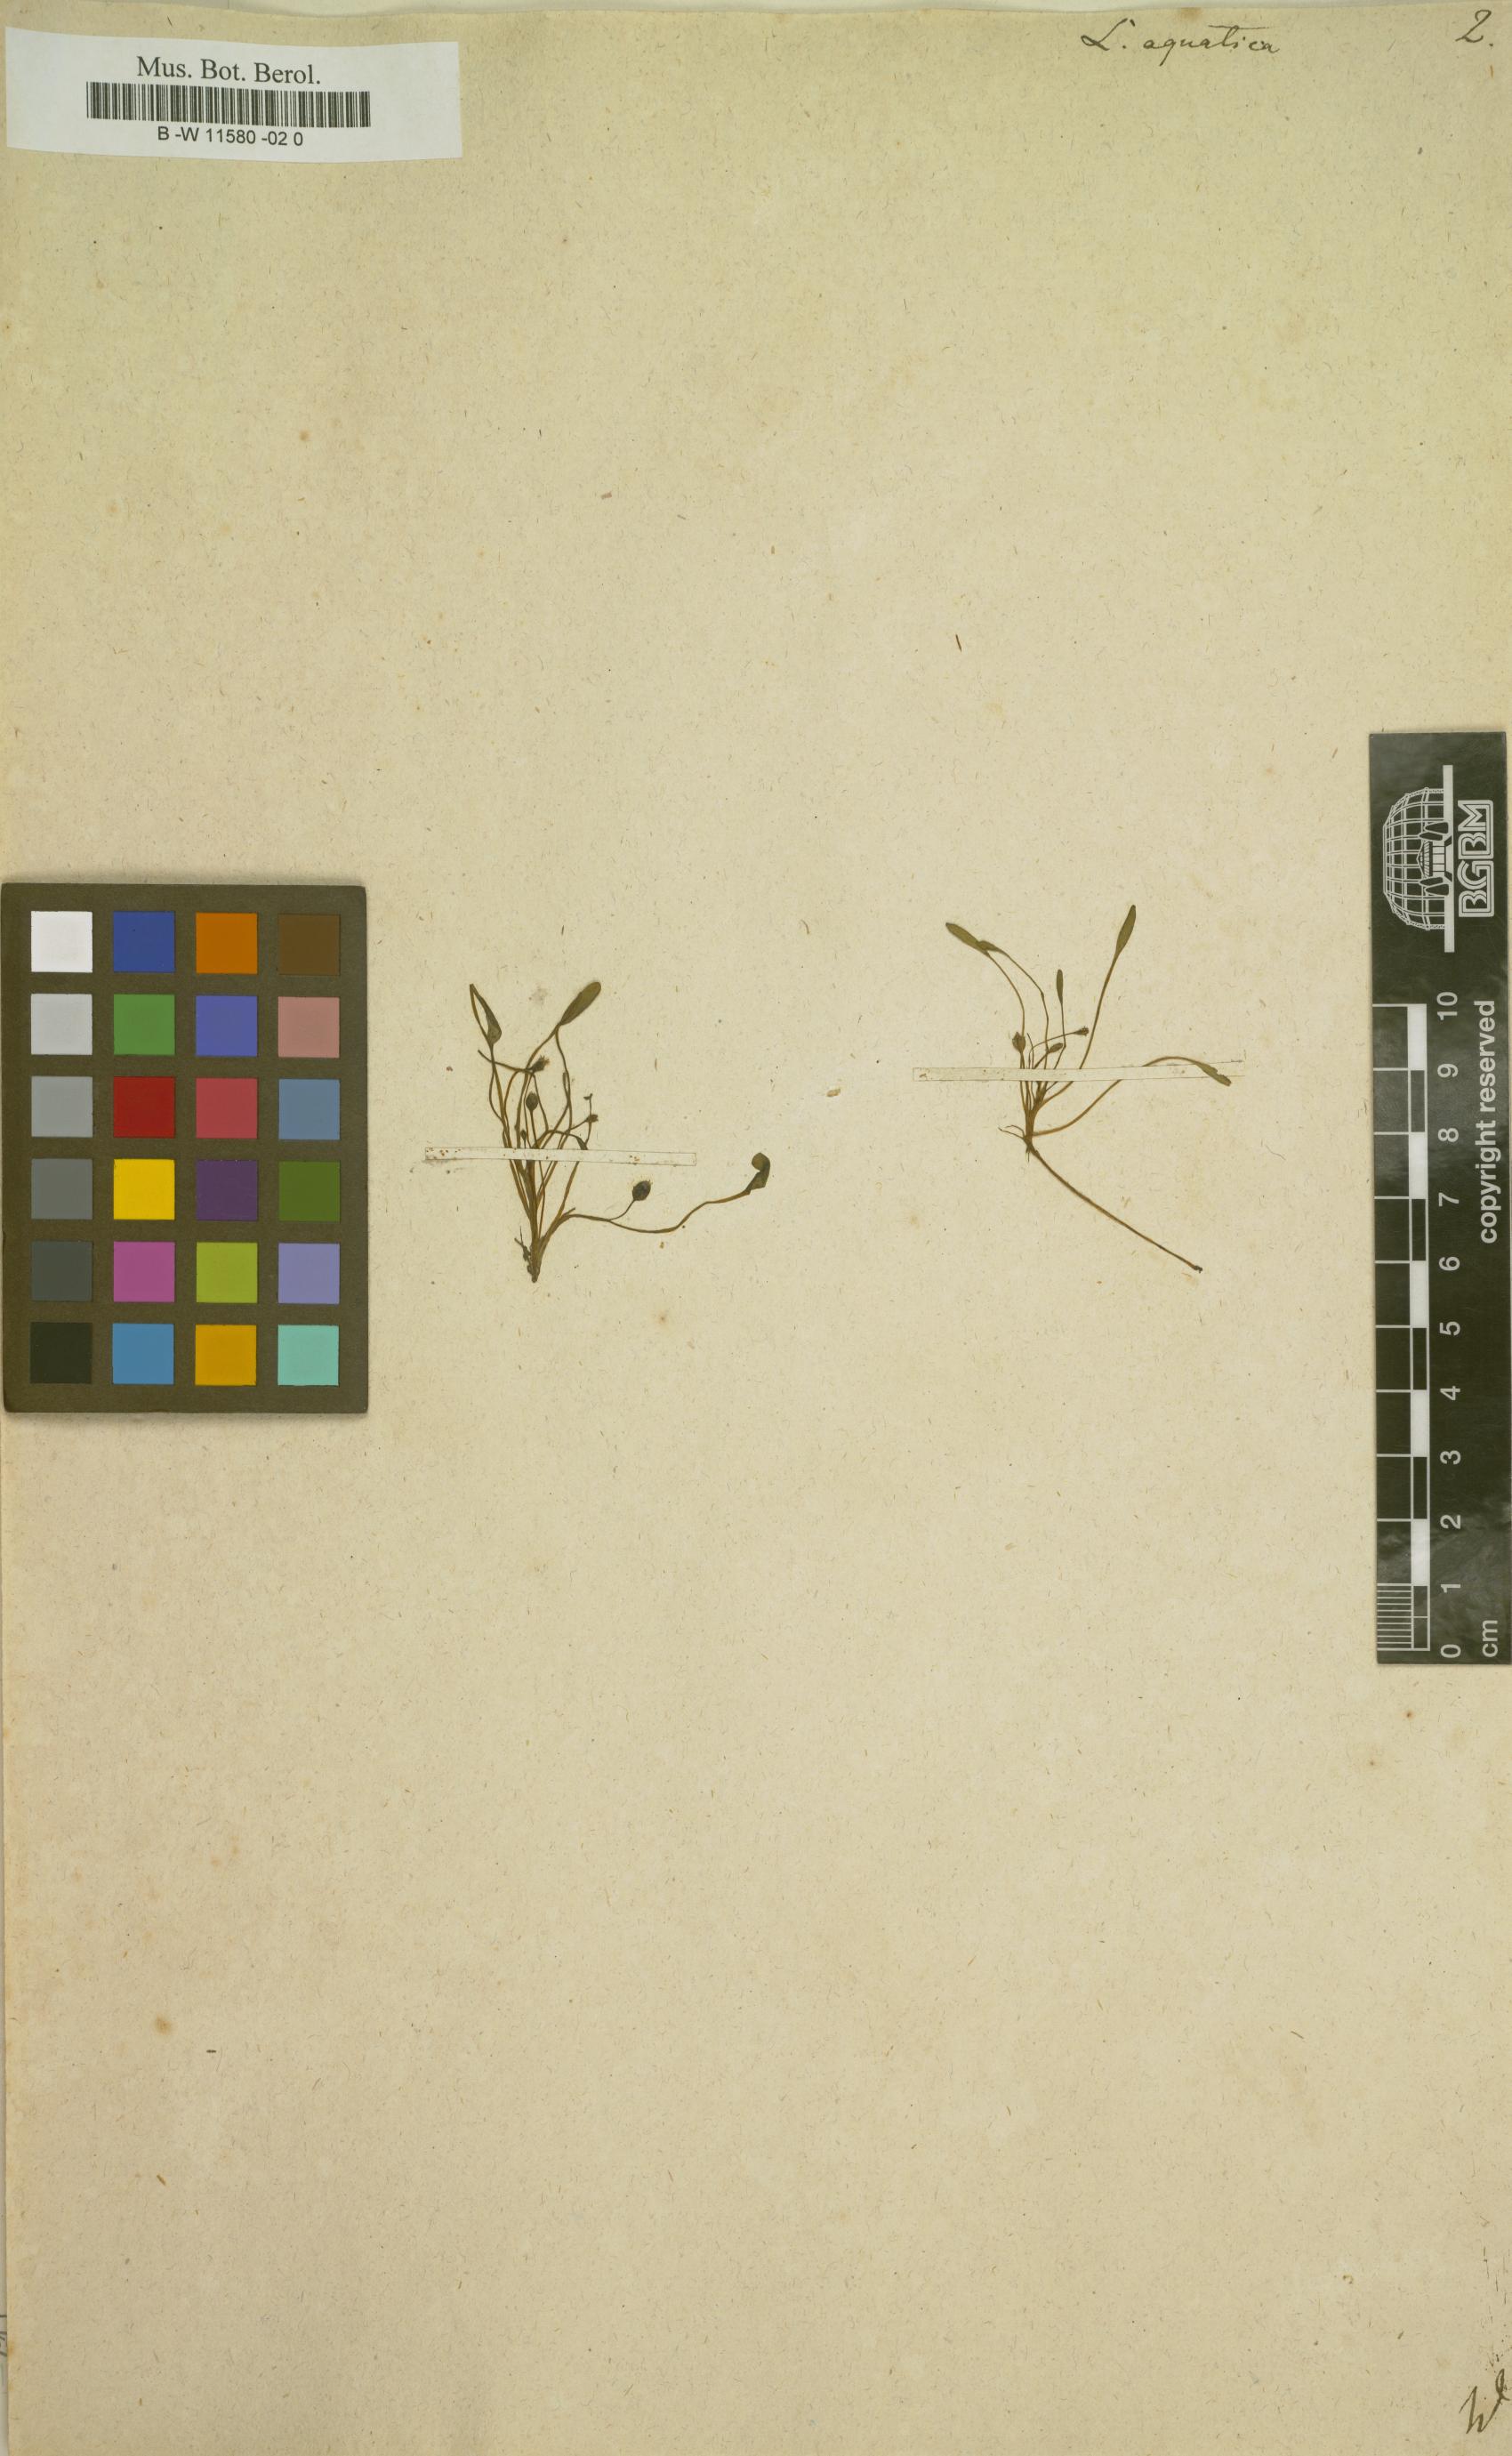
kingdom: Plantae
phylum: Tracheophyta
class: Magnoliopsida
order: Lamiales
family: Scrophulariaceae
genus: Limosella
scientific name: Limosella aquatica
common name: Mudwort
